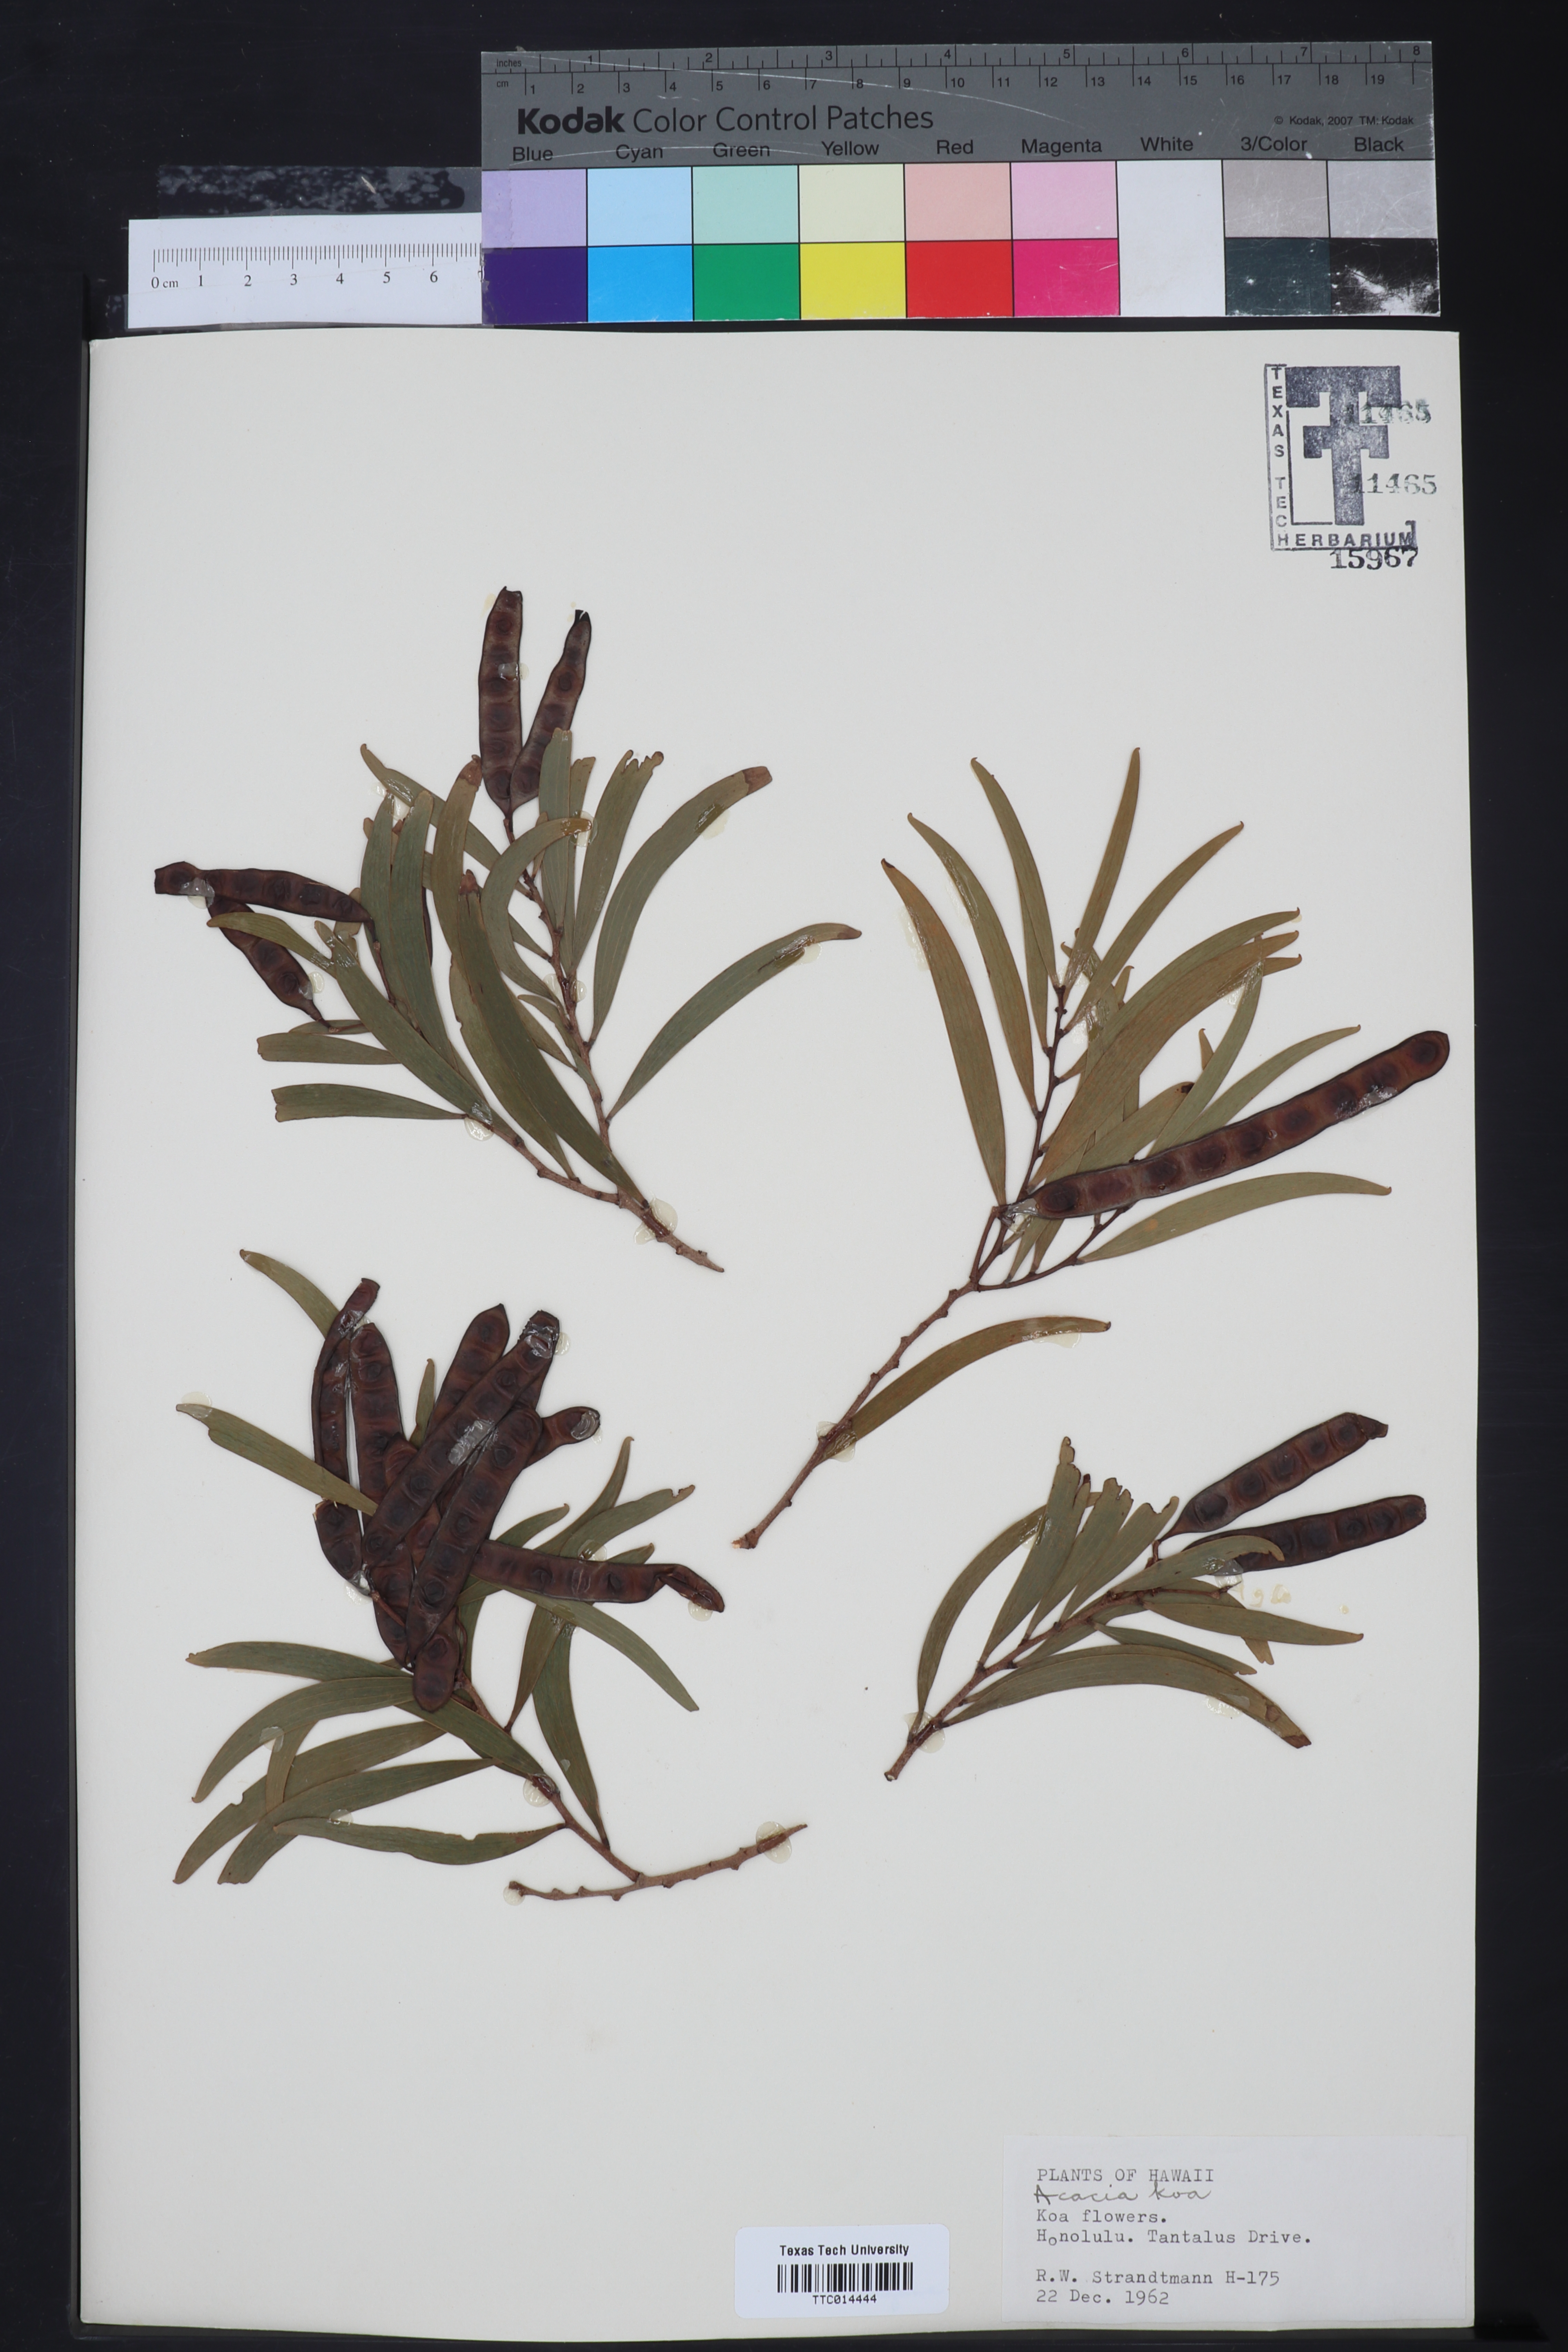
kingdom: Plantae
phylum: Tracheophyta
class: Magnoliopsida
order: Fabales
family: Fabaceae
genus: Acacia
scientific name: Acacia koa
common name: Gray koa
